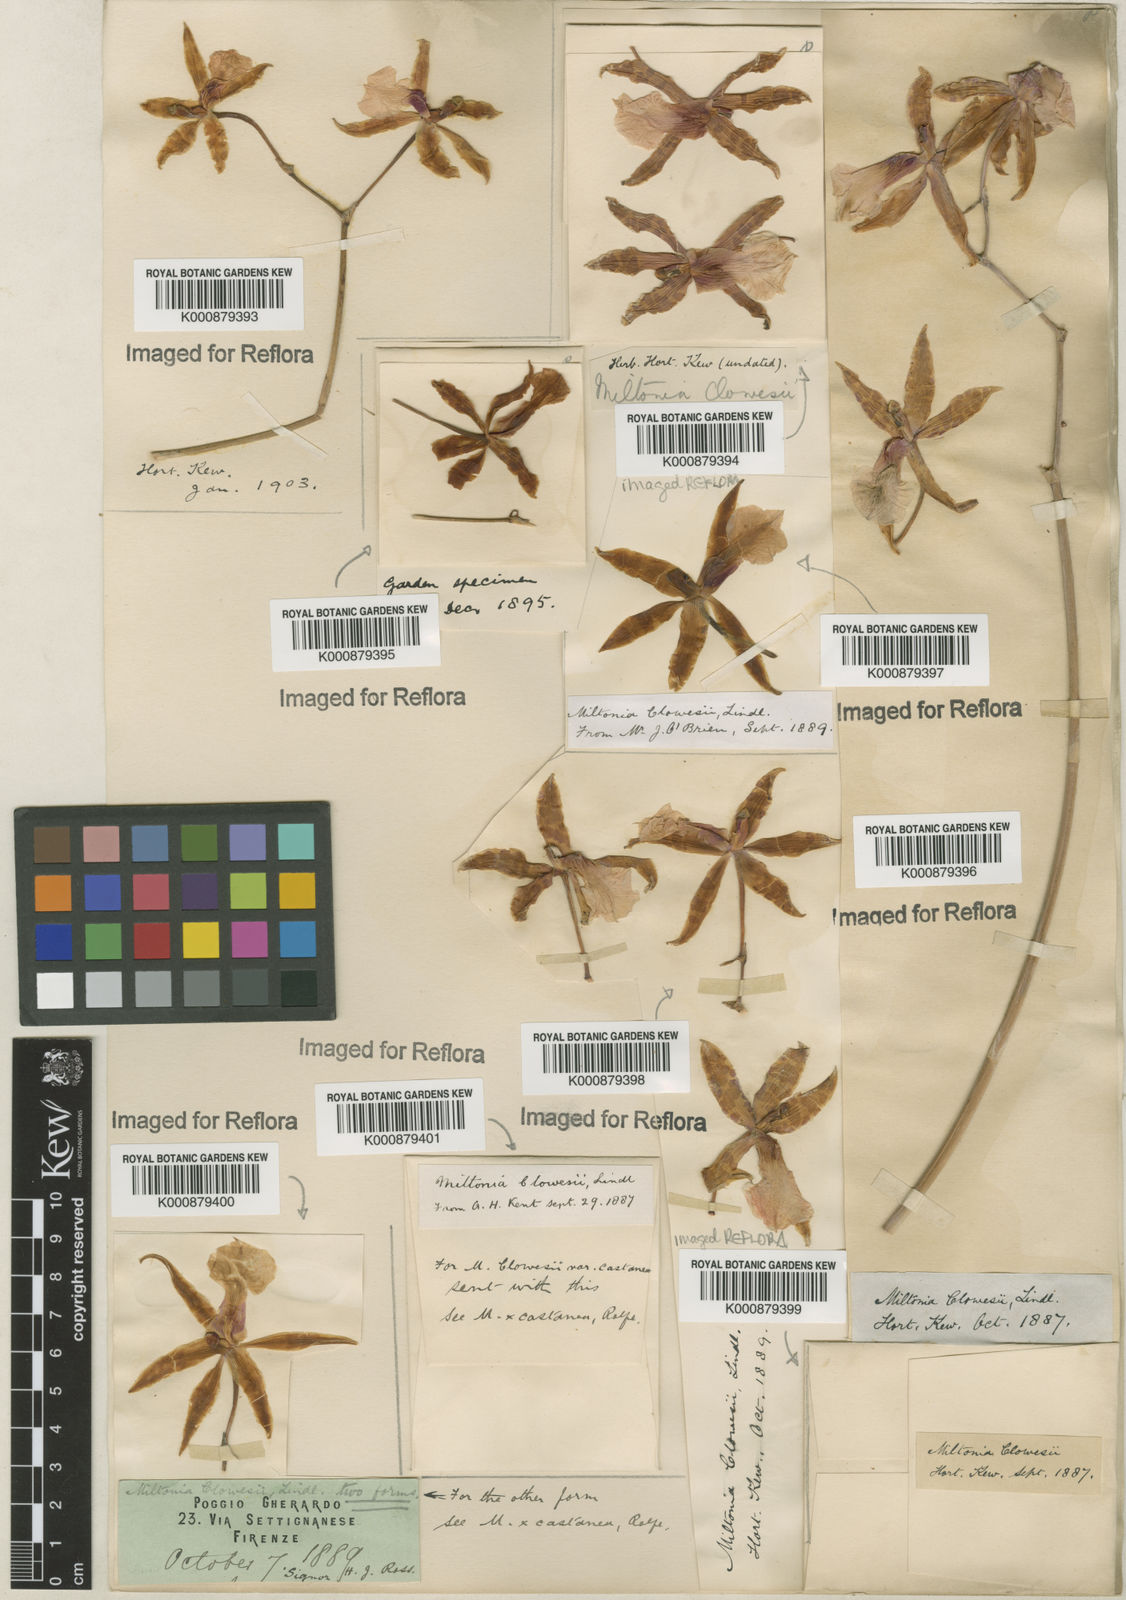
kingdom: Plantae
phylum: Tracheophyta
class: Liliopsida
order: Asparagales
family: Orchidaceae
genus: Miltonia
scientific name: Miltonia clowesii
